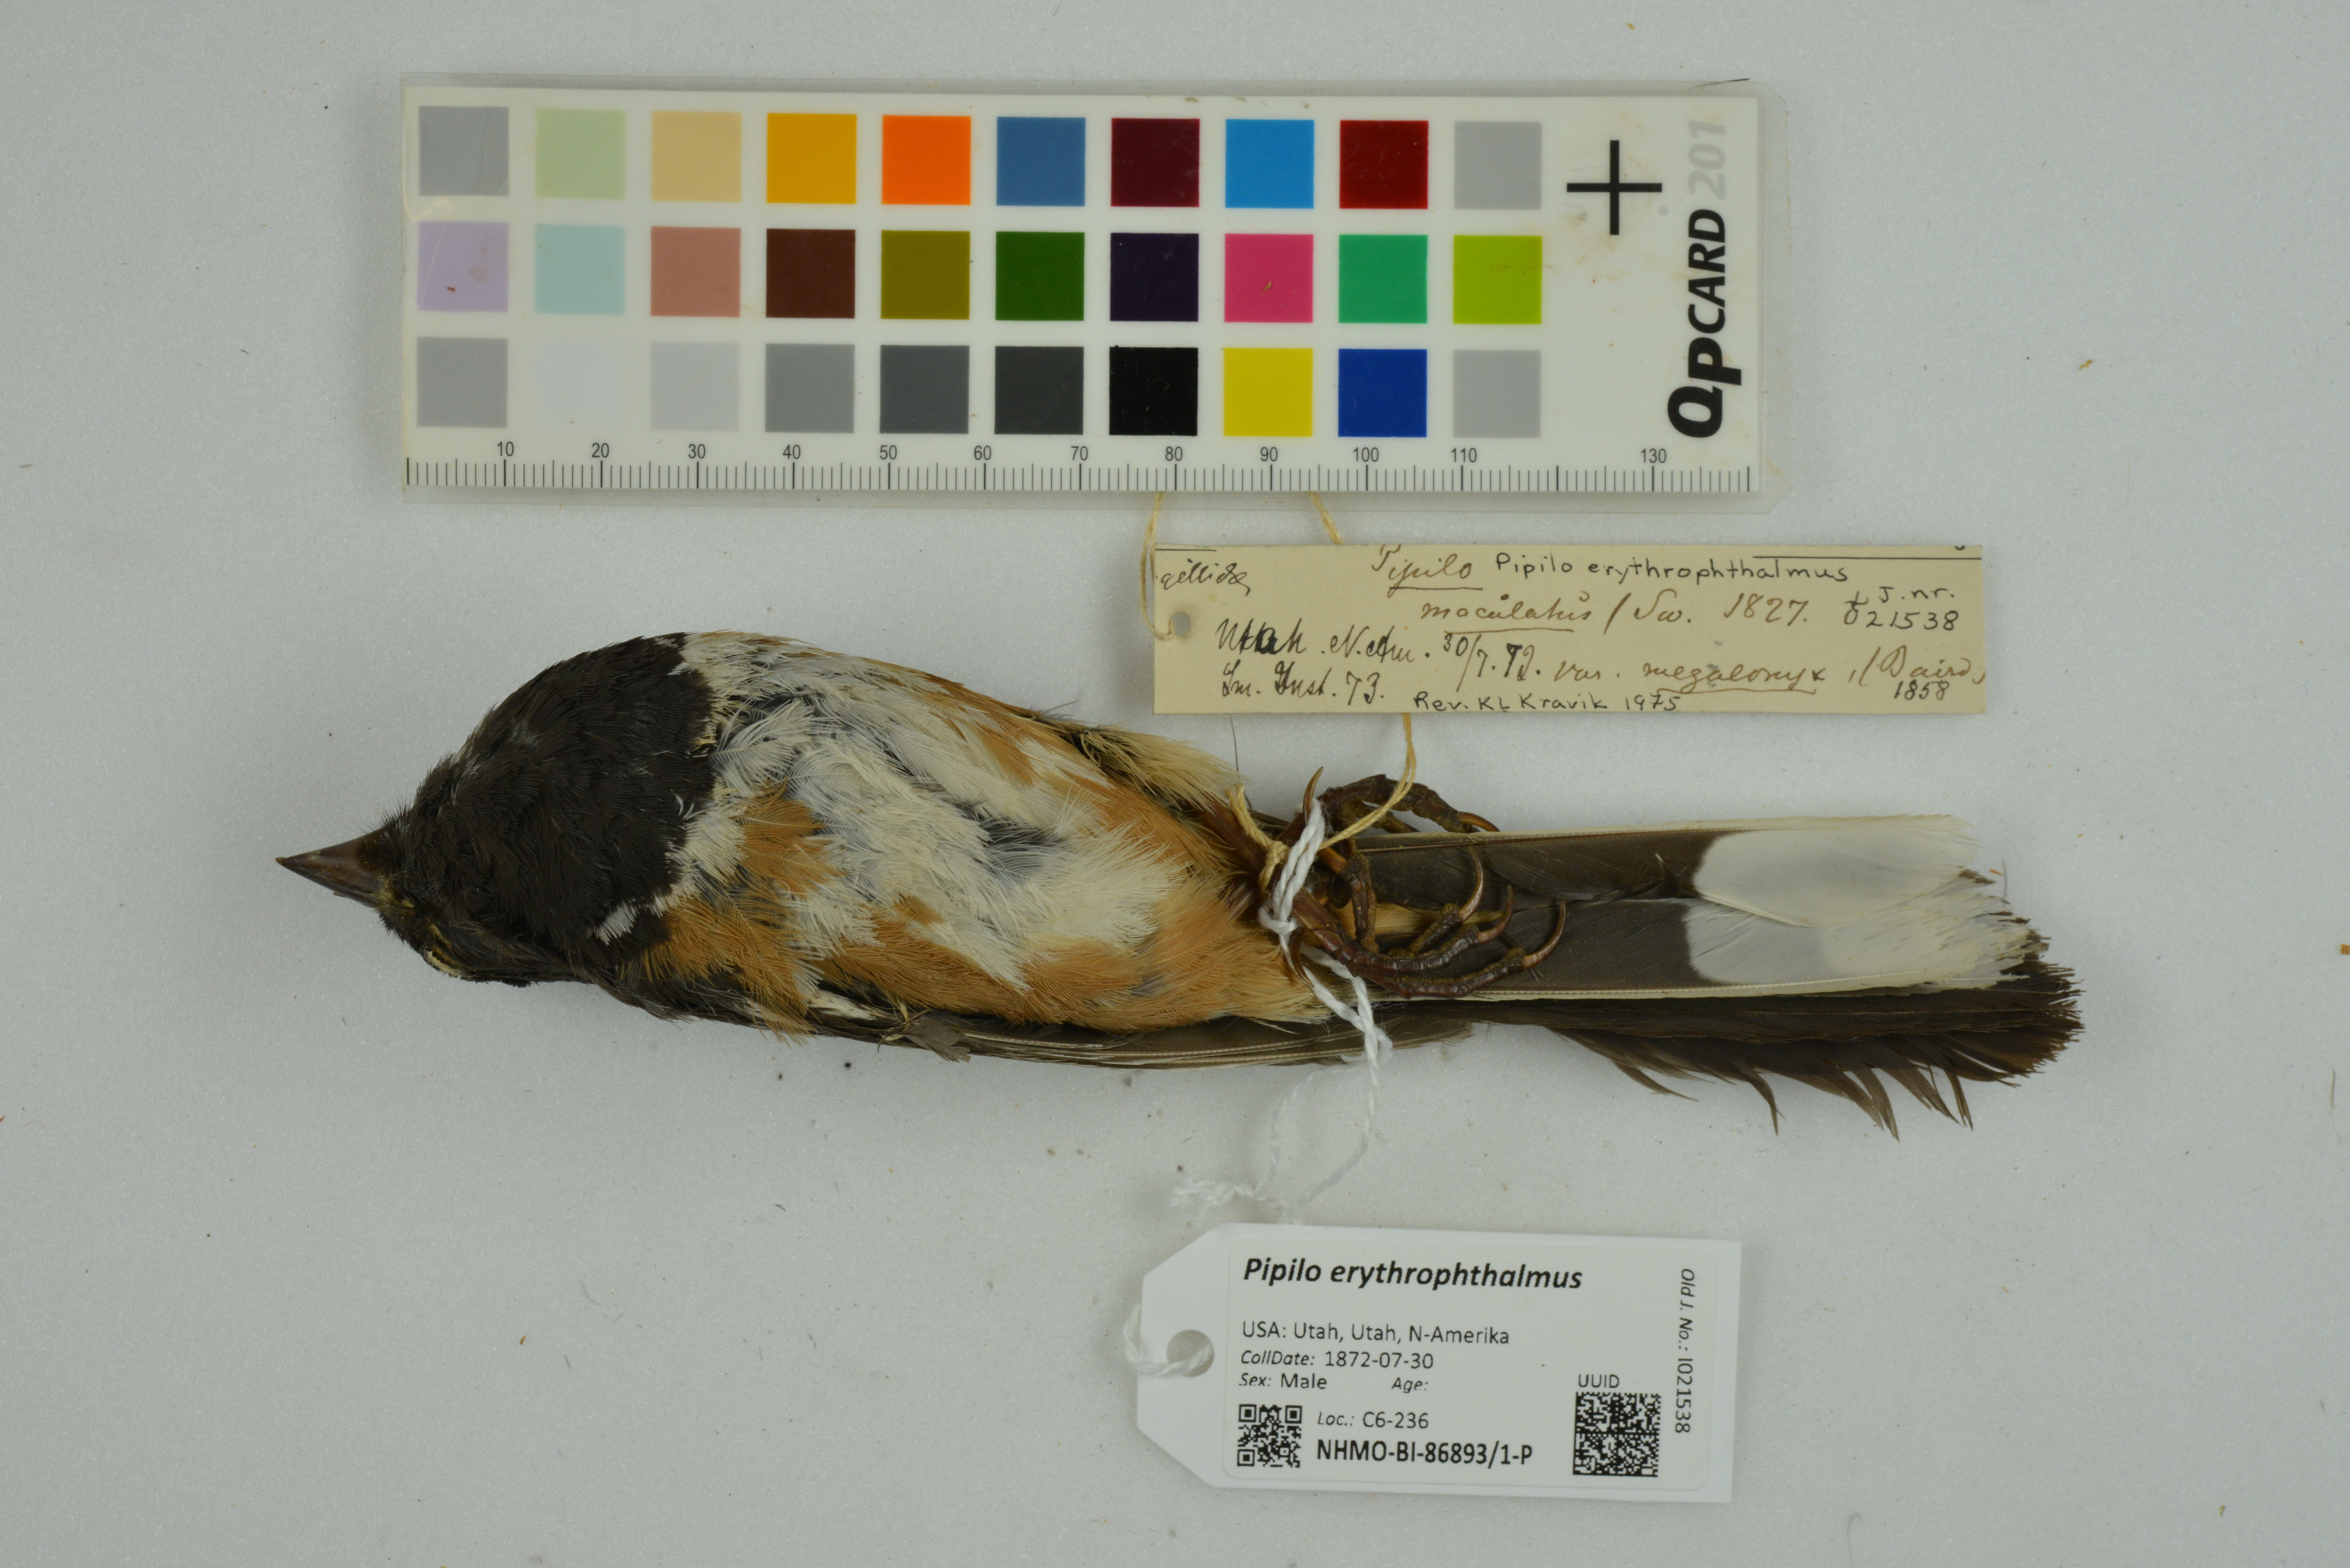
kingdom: Animalia
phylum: Chordata
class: Aves
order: Passeriformes
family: Passerellidae
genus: Pipilo
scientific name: Pipilo erythrophthalmus
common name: Eastern towhee
